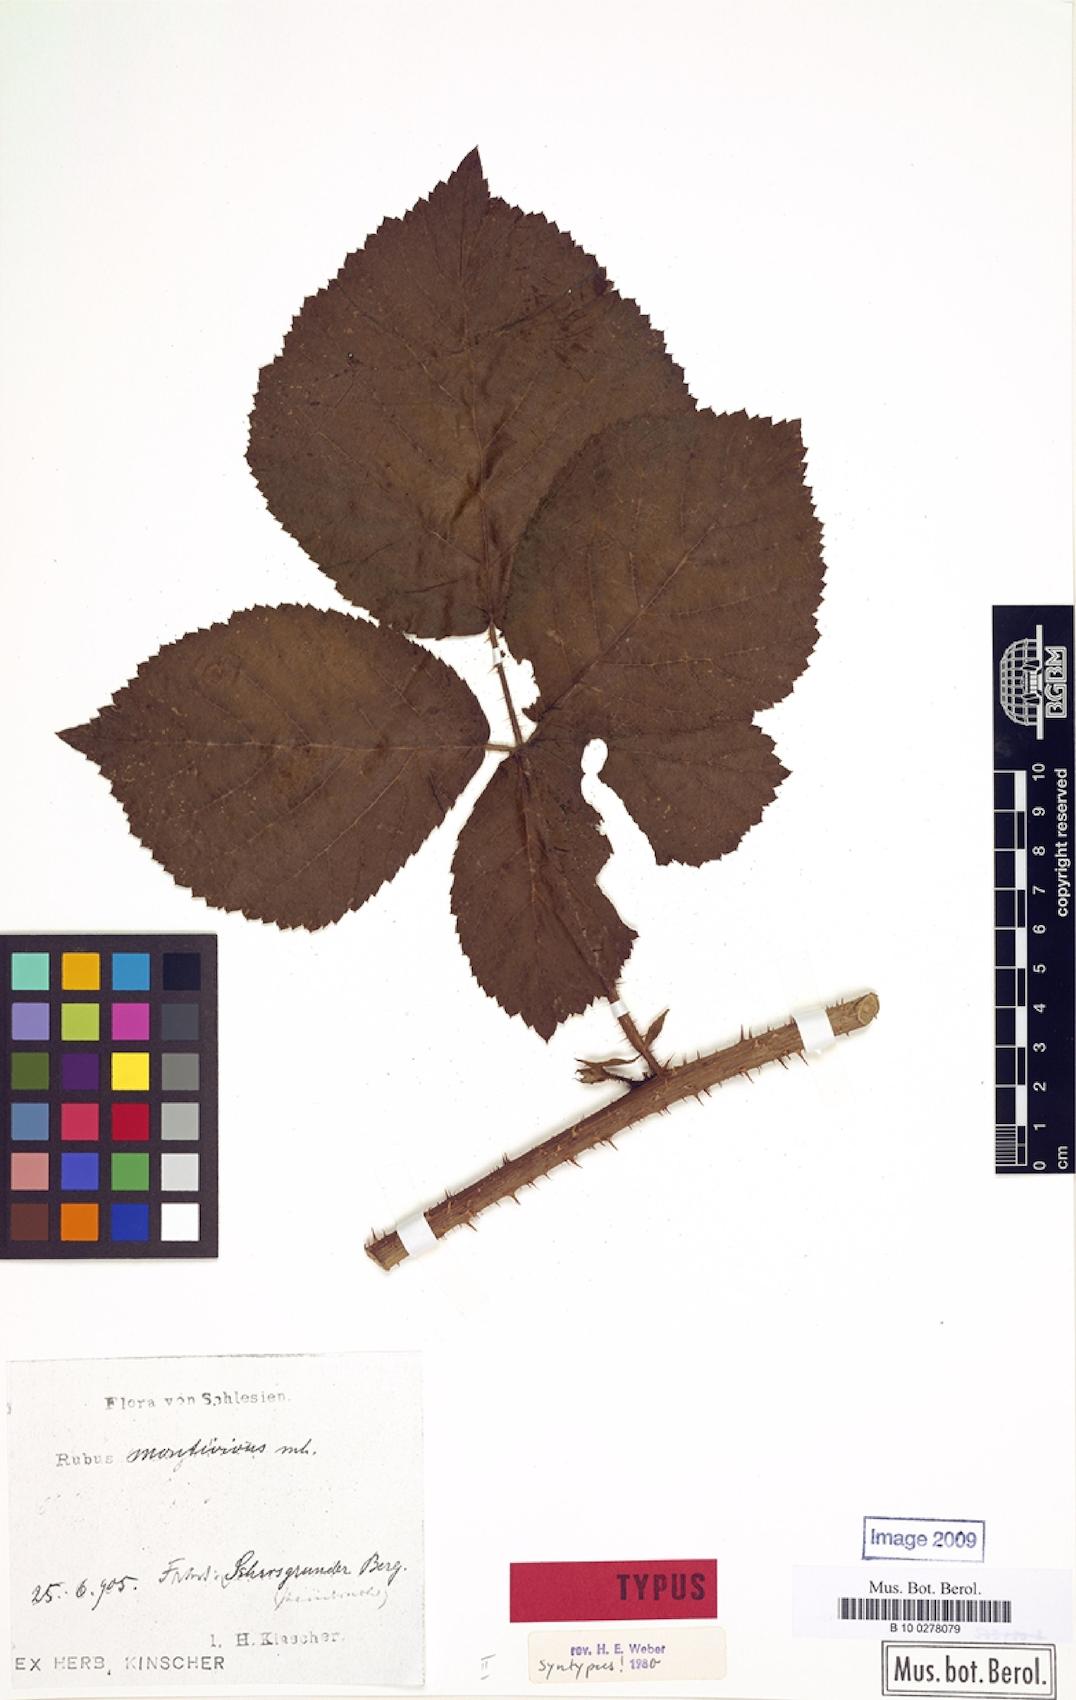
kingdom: Plantae
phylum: Tracheophyta
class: Magnoliopsida
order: Rosales
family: Rosaceae
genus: Rubus
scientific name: Rubus dollnensis
